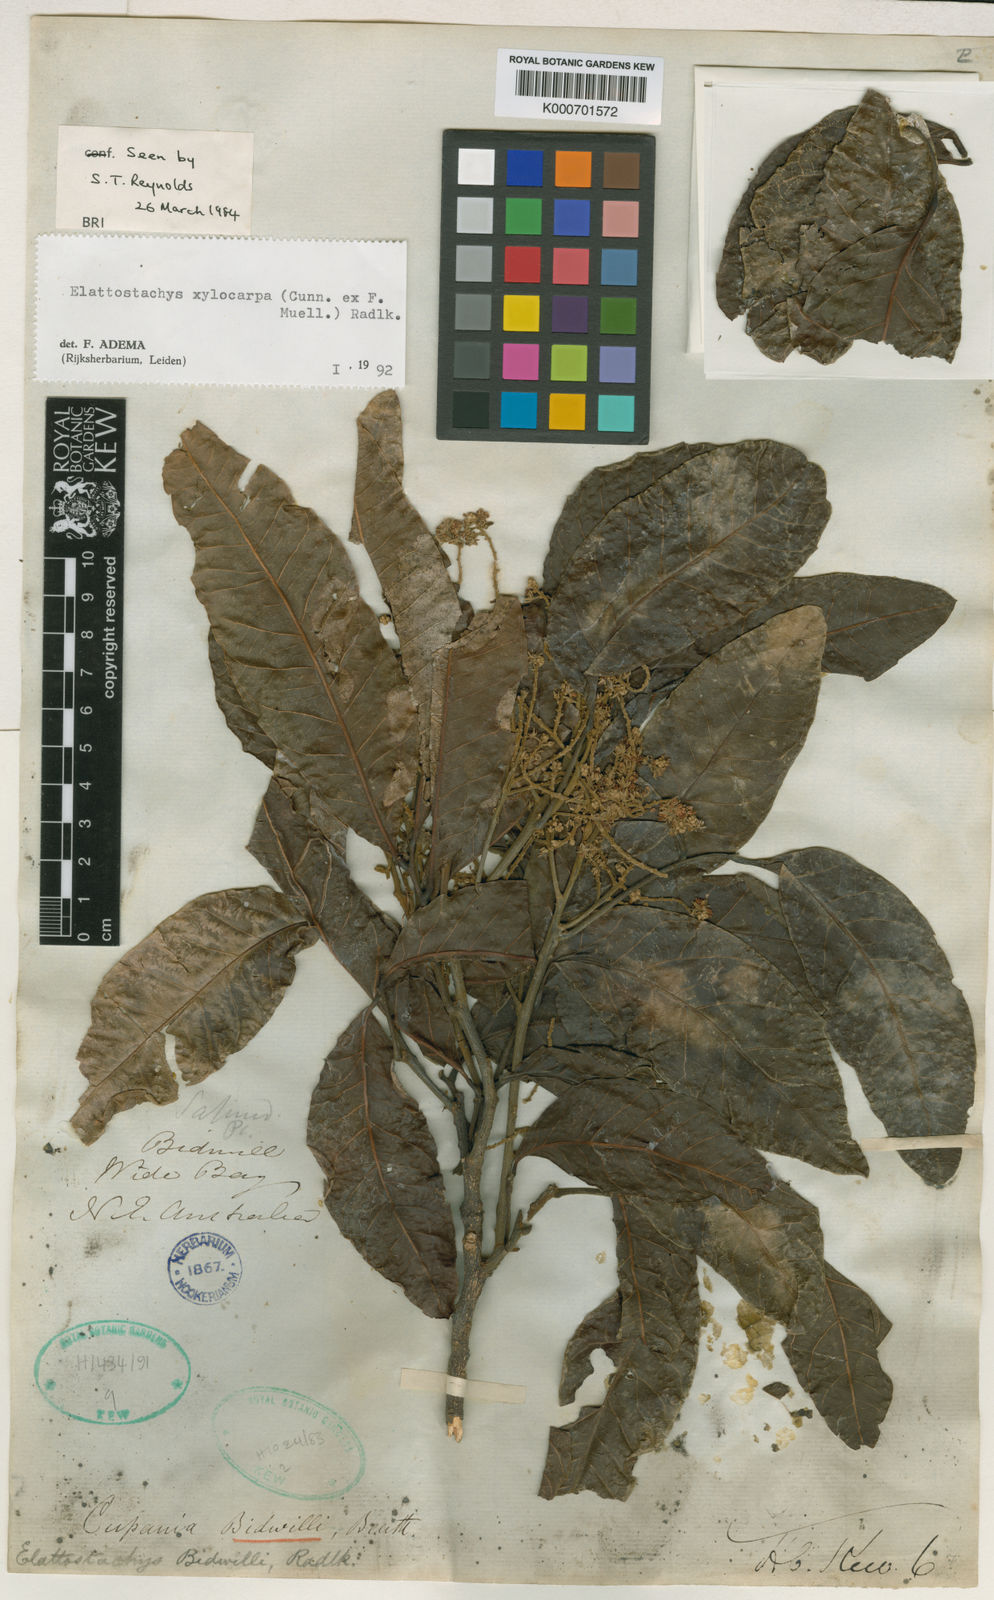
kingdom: Plantae
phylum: Tracheophyta
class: Magnoliopsida
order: Sapindales
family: Sapindaceae
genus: Elattostachys
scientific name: Elattostachys xylocarpa
